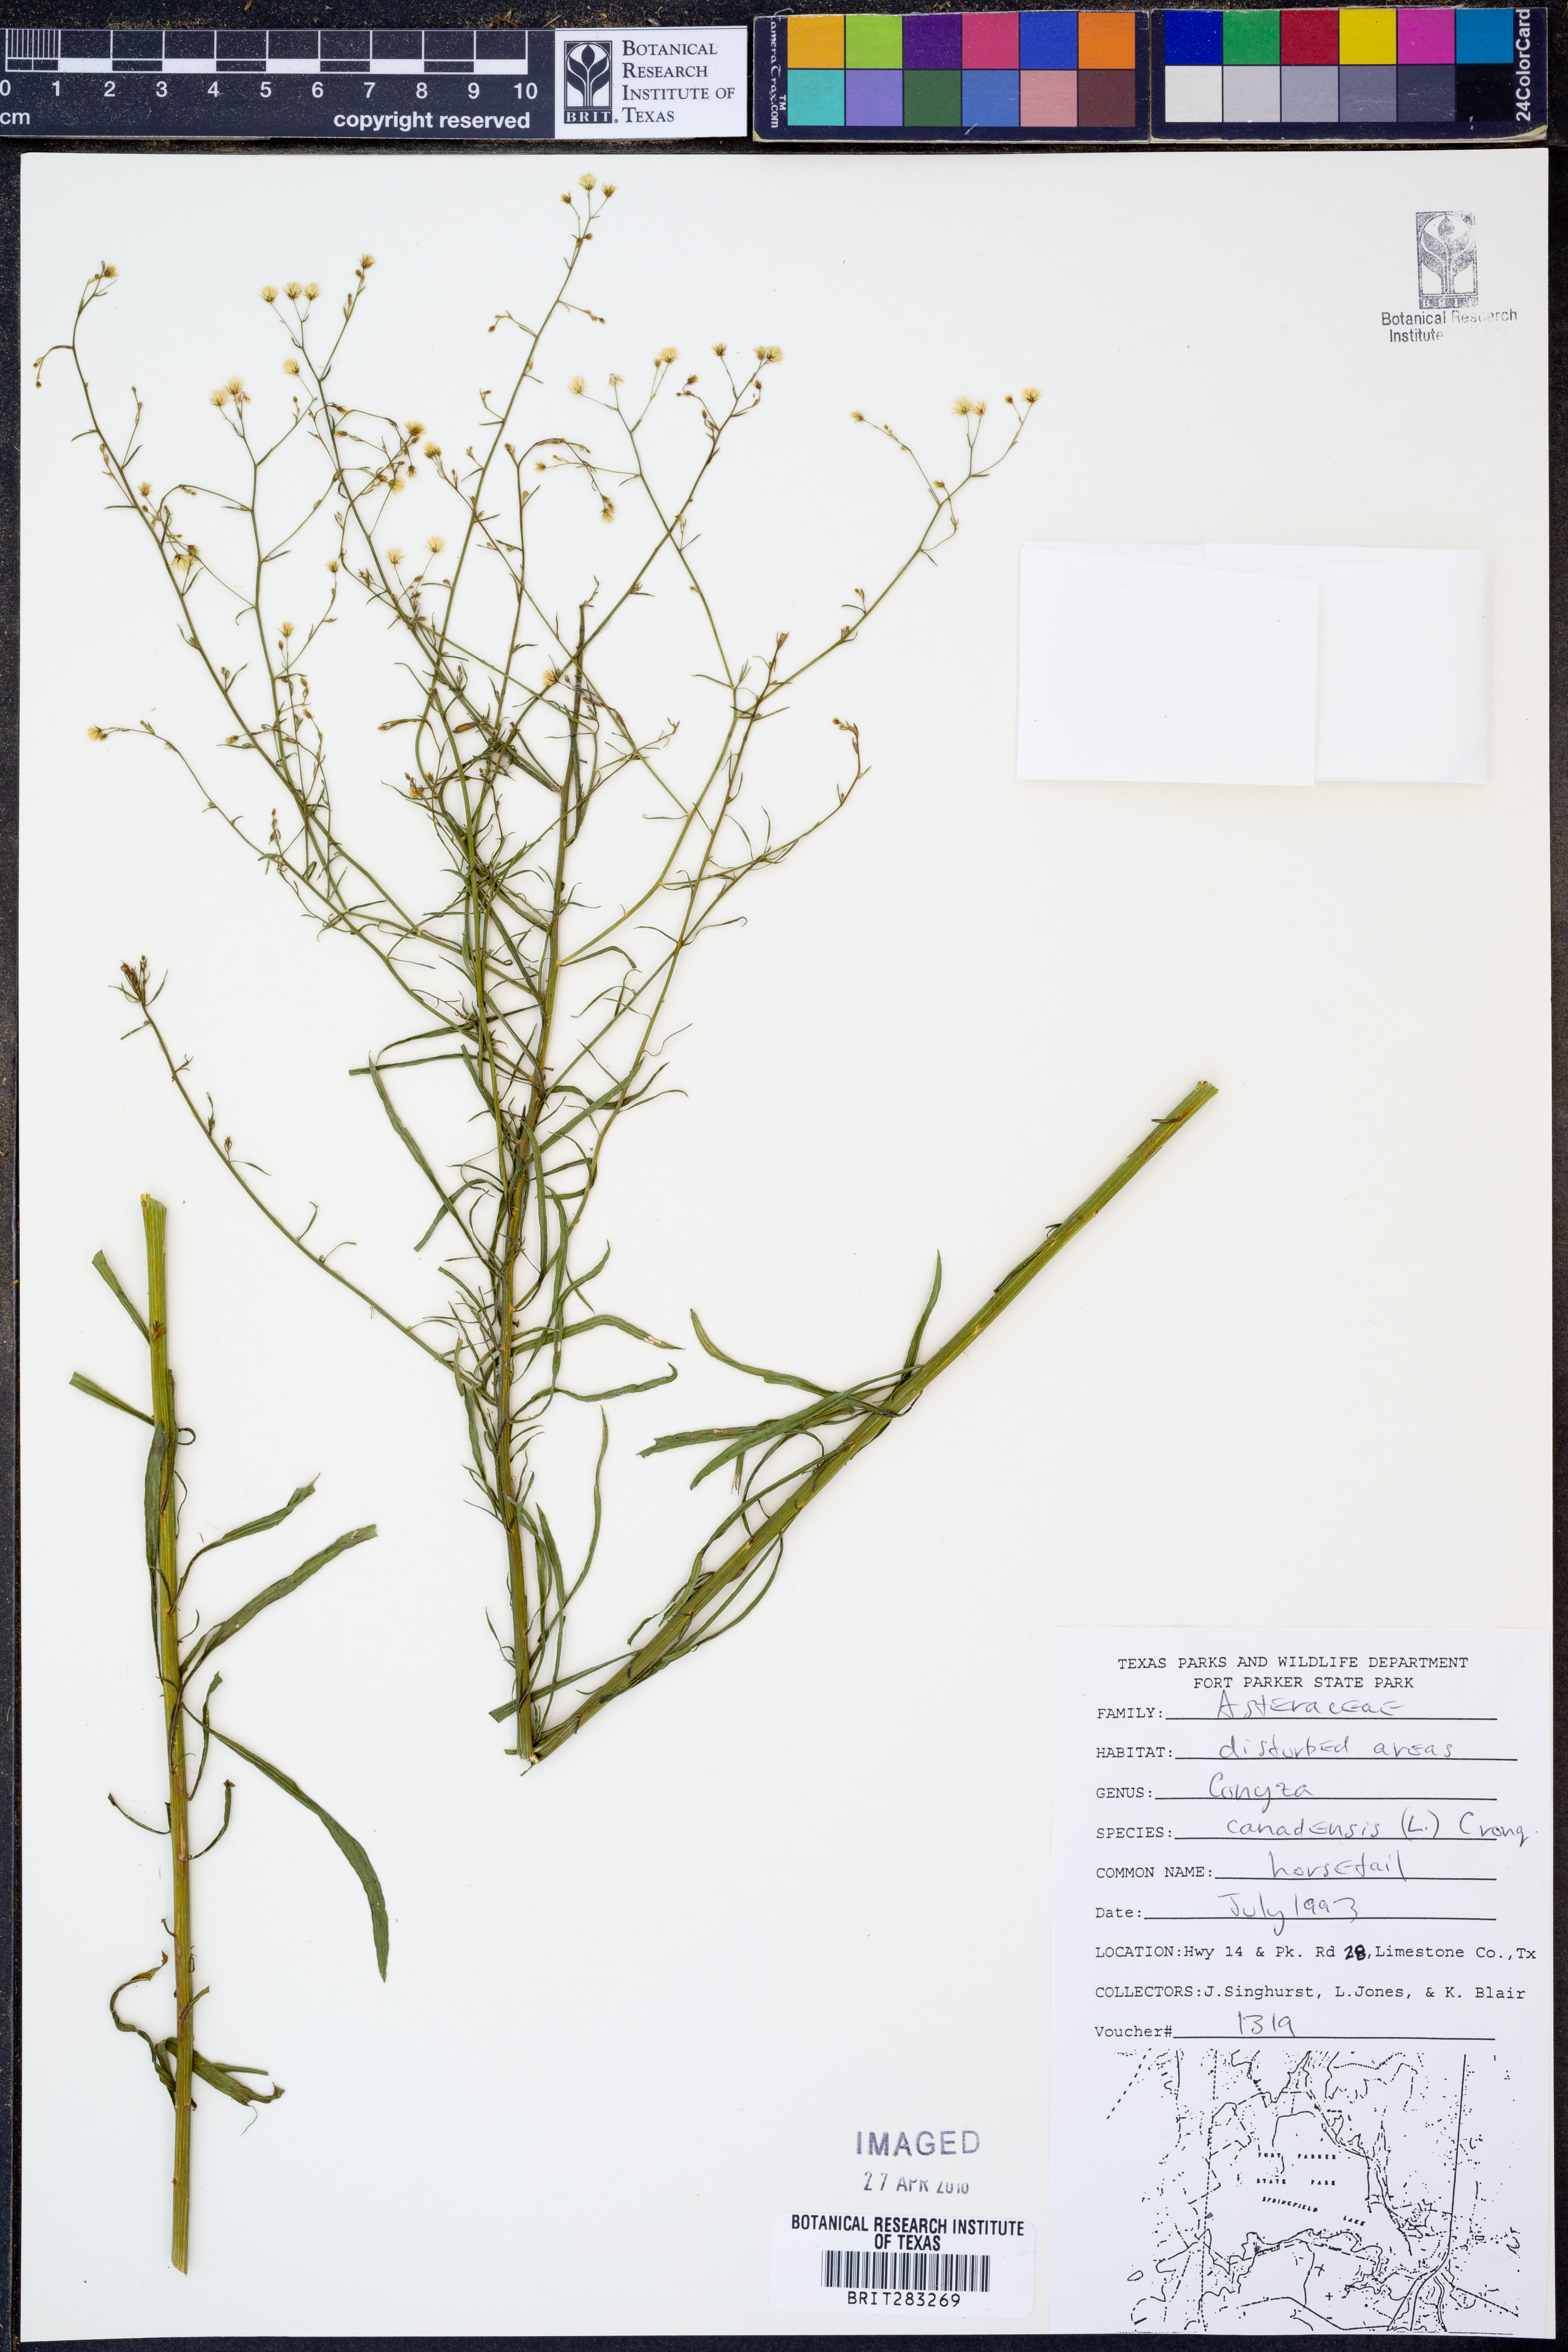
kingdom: Plantae
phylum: Tracheophyta
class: Magnoliopsida
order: Asterales
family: Asteraceae
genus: Erigeron
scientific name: Erigeron canadensis
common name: Canadian fleabane
